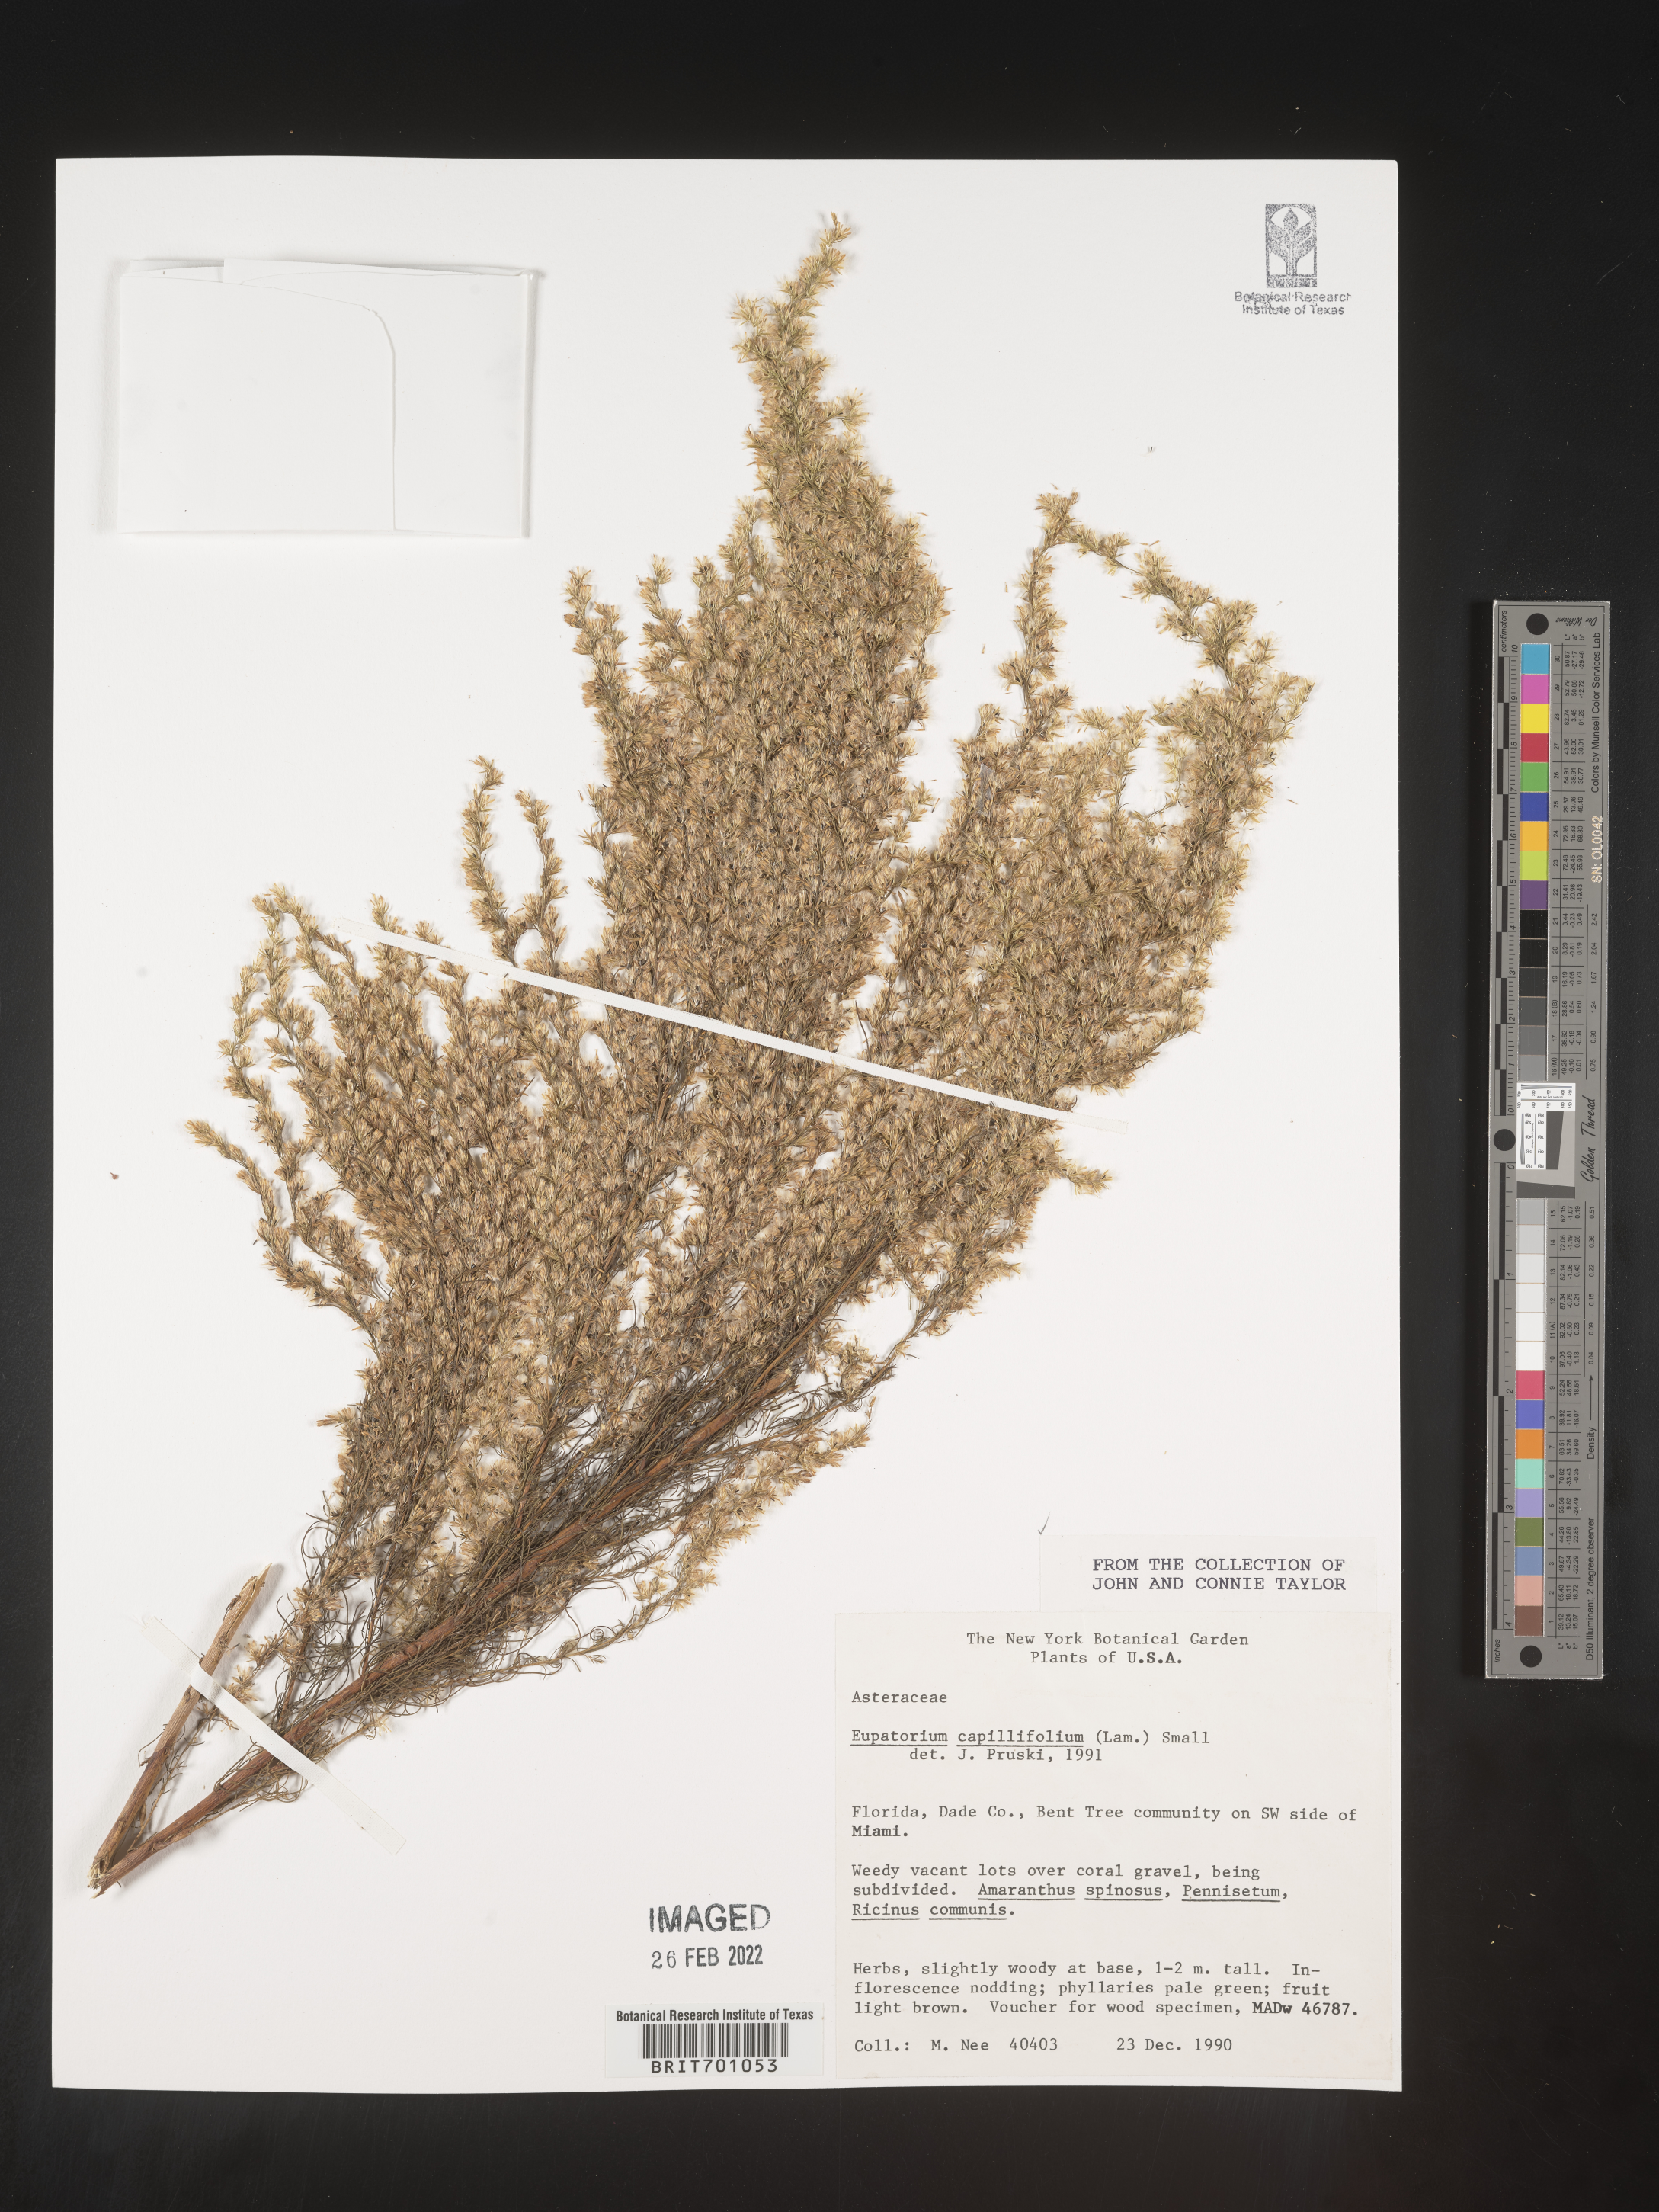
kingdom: Plantae
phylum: Tracheophyta
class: Magnoliopsida
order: Asterales
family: Asteraceae
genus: Eupatorium
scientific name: Eupatorium capillifolium
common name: Dog-fennel
